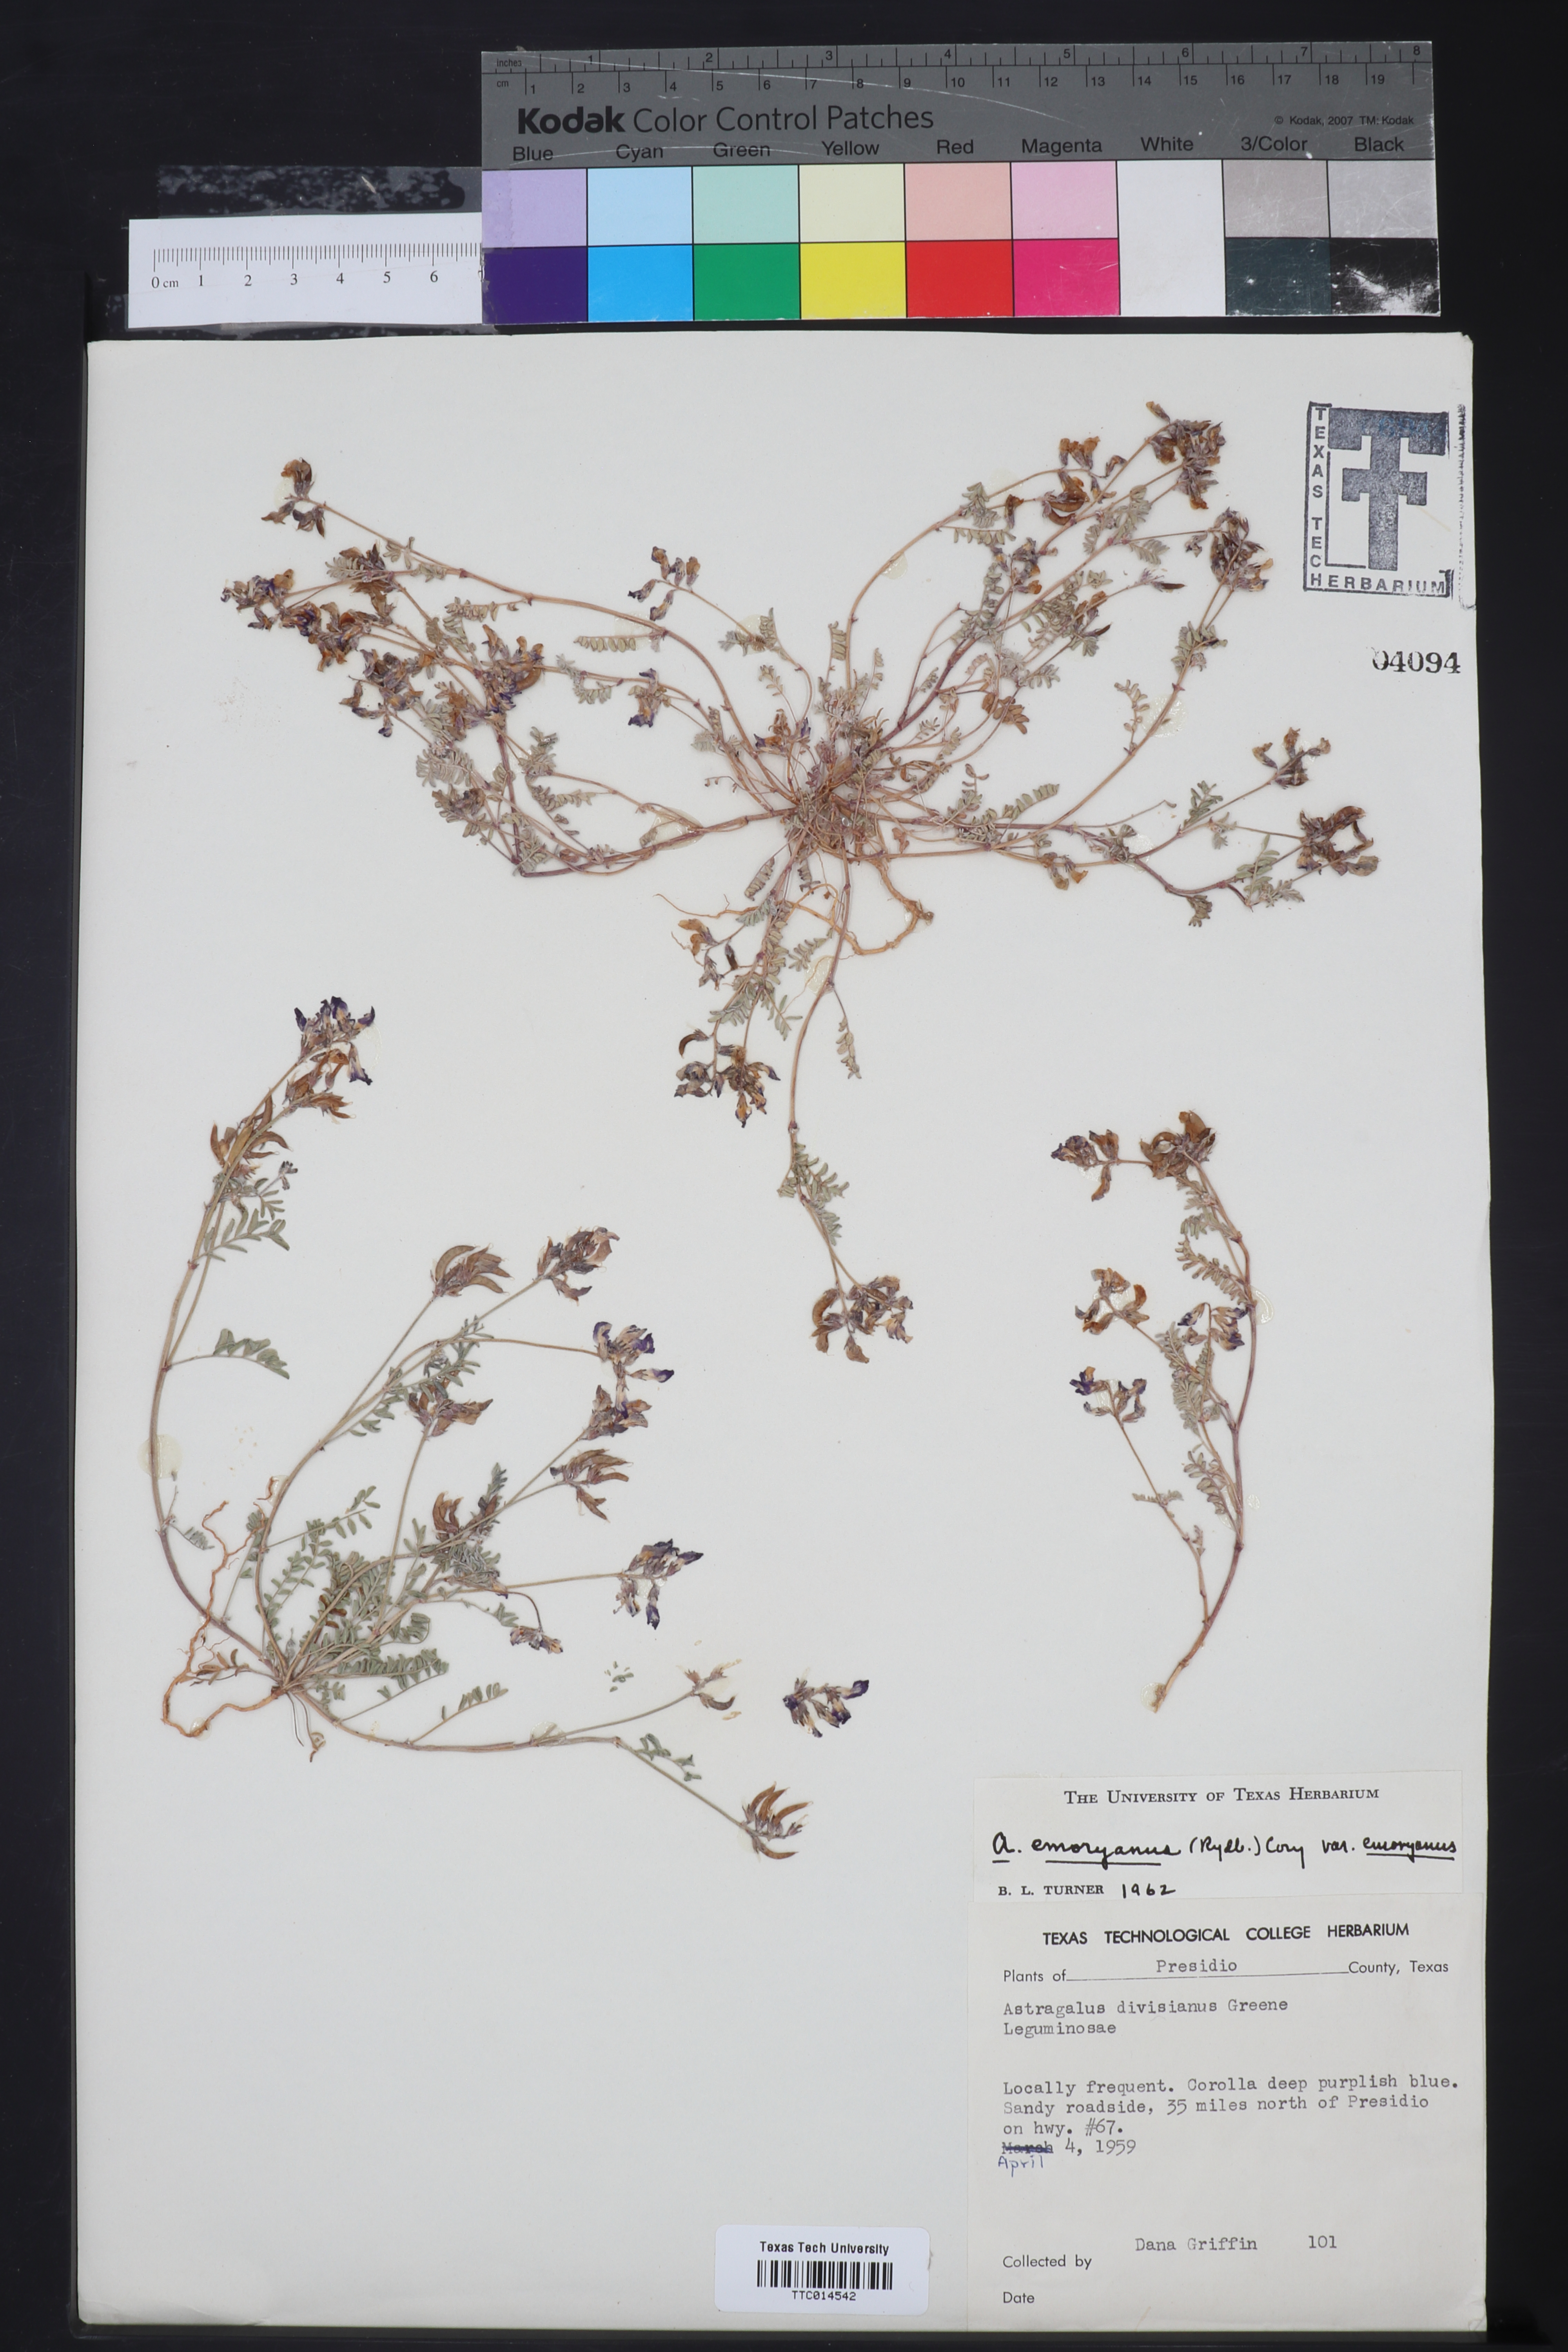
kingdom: Plantae
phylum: Tracheophyta
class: Magnoliopsida
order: Fabales
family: Fabaceae
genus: Astragalus
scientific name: Astragalus emoryanus
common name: Emory's milk-vetch
